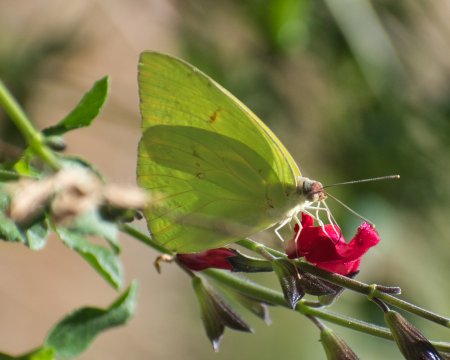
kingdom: Animalia
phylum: Arthropoda
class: Insecta
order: Lepidoptera
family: Pieridae
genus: Phoebis
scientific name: Phoebis sennae
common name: Cloudless Sulphur
